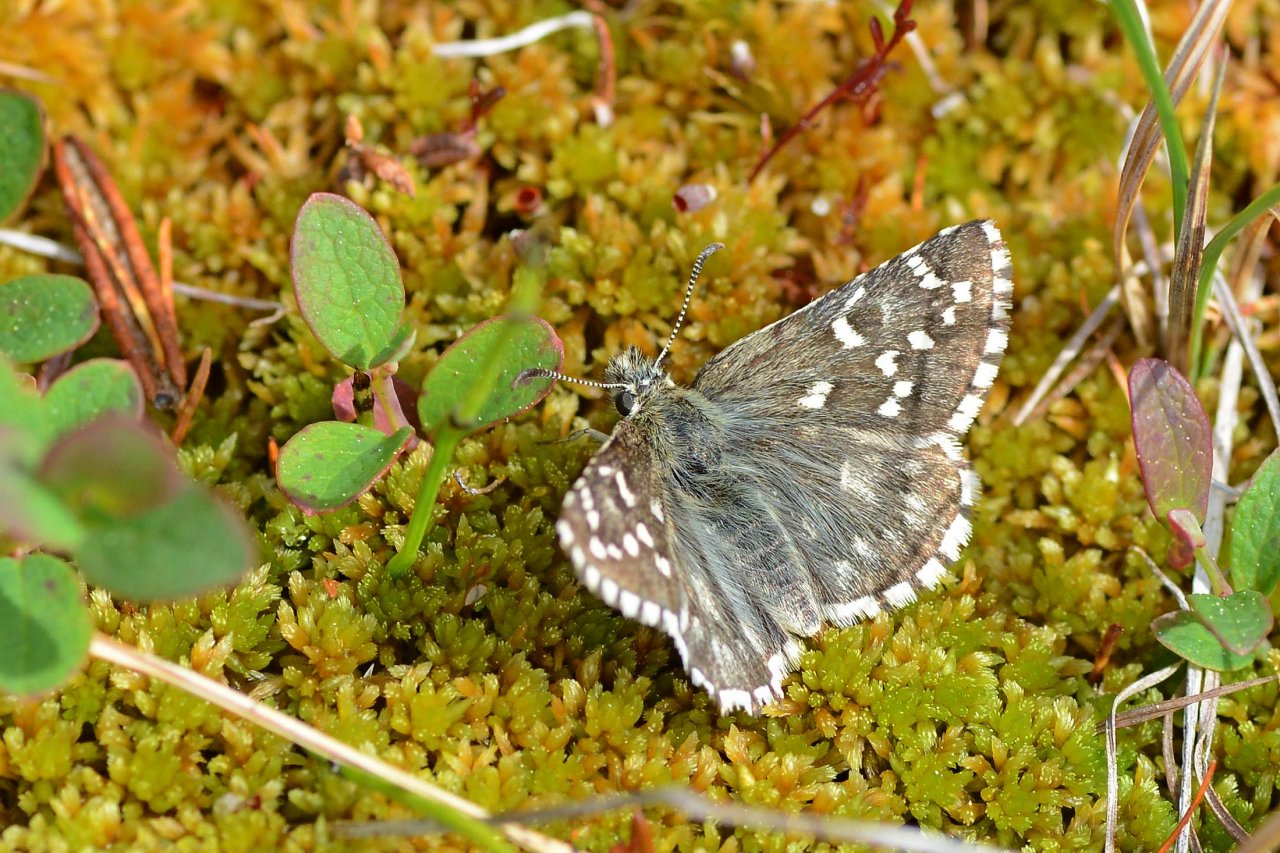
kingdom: Animalia
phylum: Arthropoda
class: Insecta
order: Lepidoptera
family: Hesperiidae
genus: Pyrgus
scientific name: Pyrgus centaureae
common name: Grizzled Skipper
